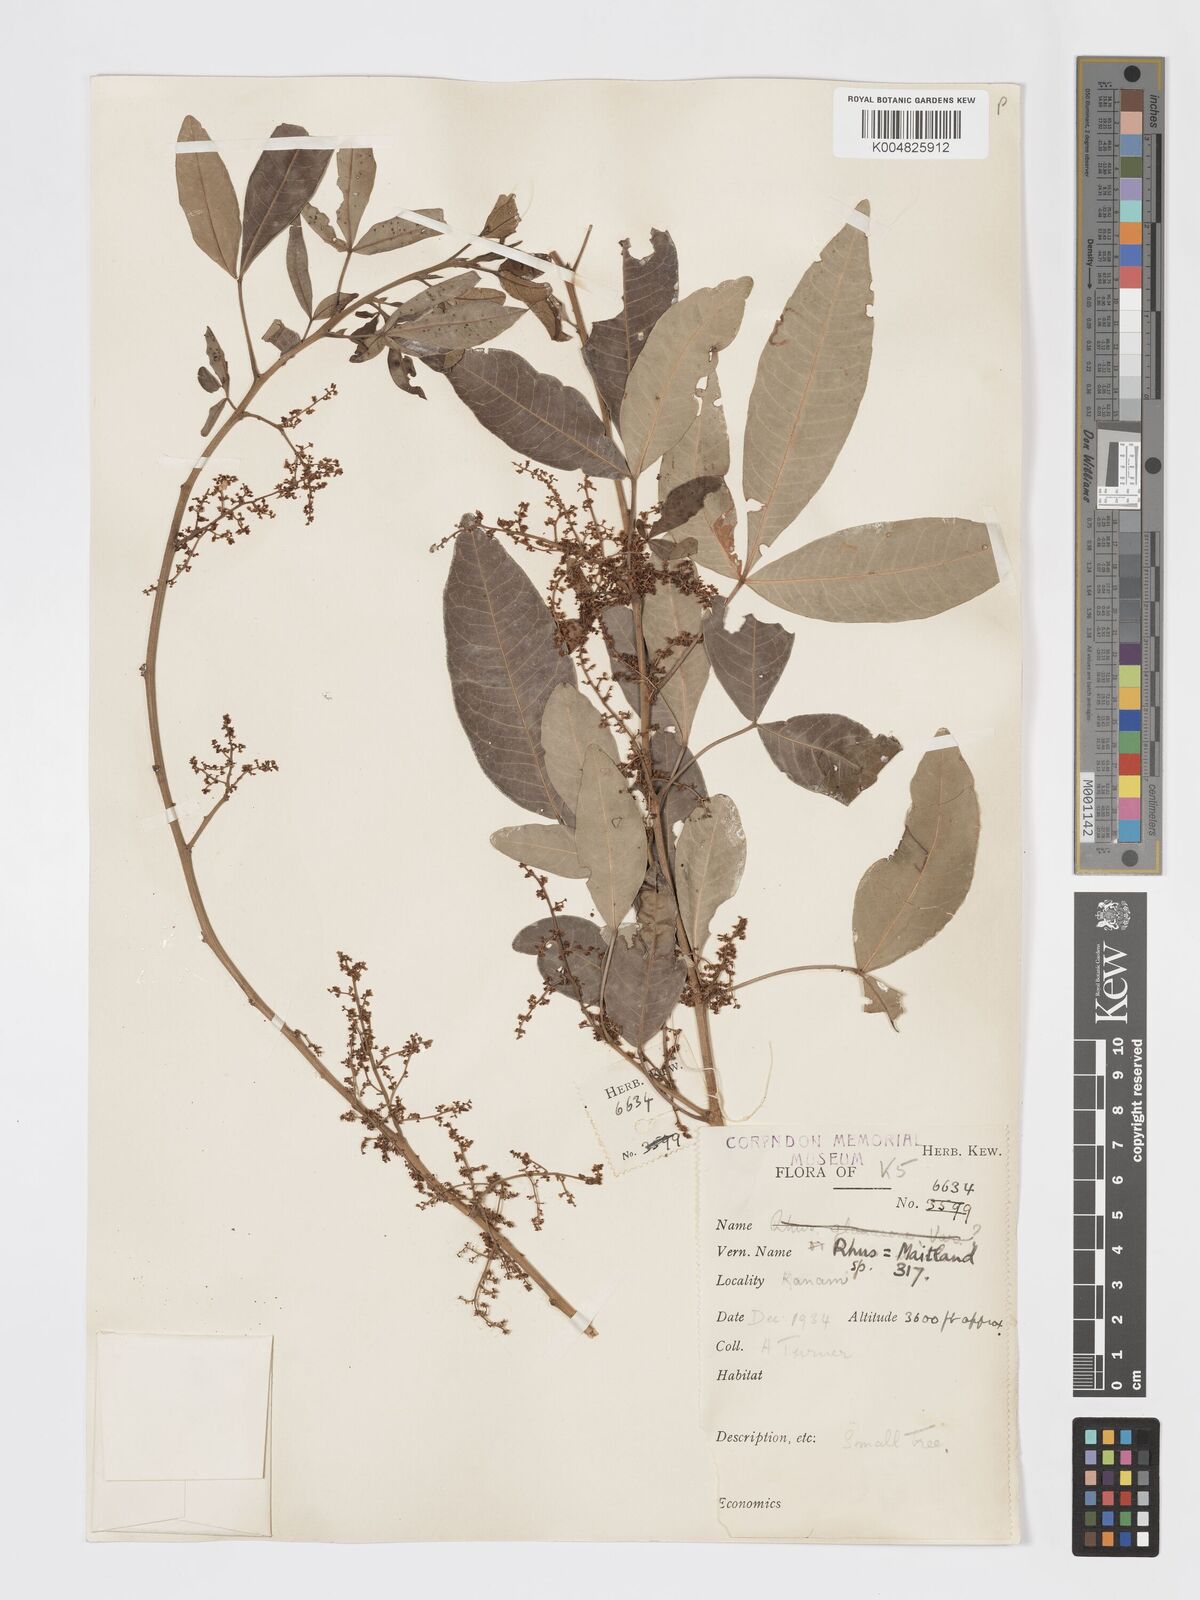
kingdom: Plantae
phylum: Tracheophyta
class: Magnoliopsida
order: Sapindales
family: Anacardiaceae
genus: Searsia
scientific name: Searsia natalensis
